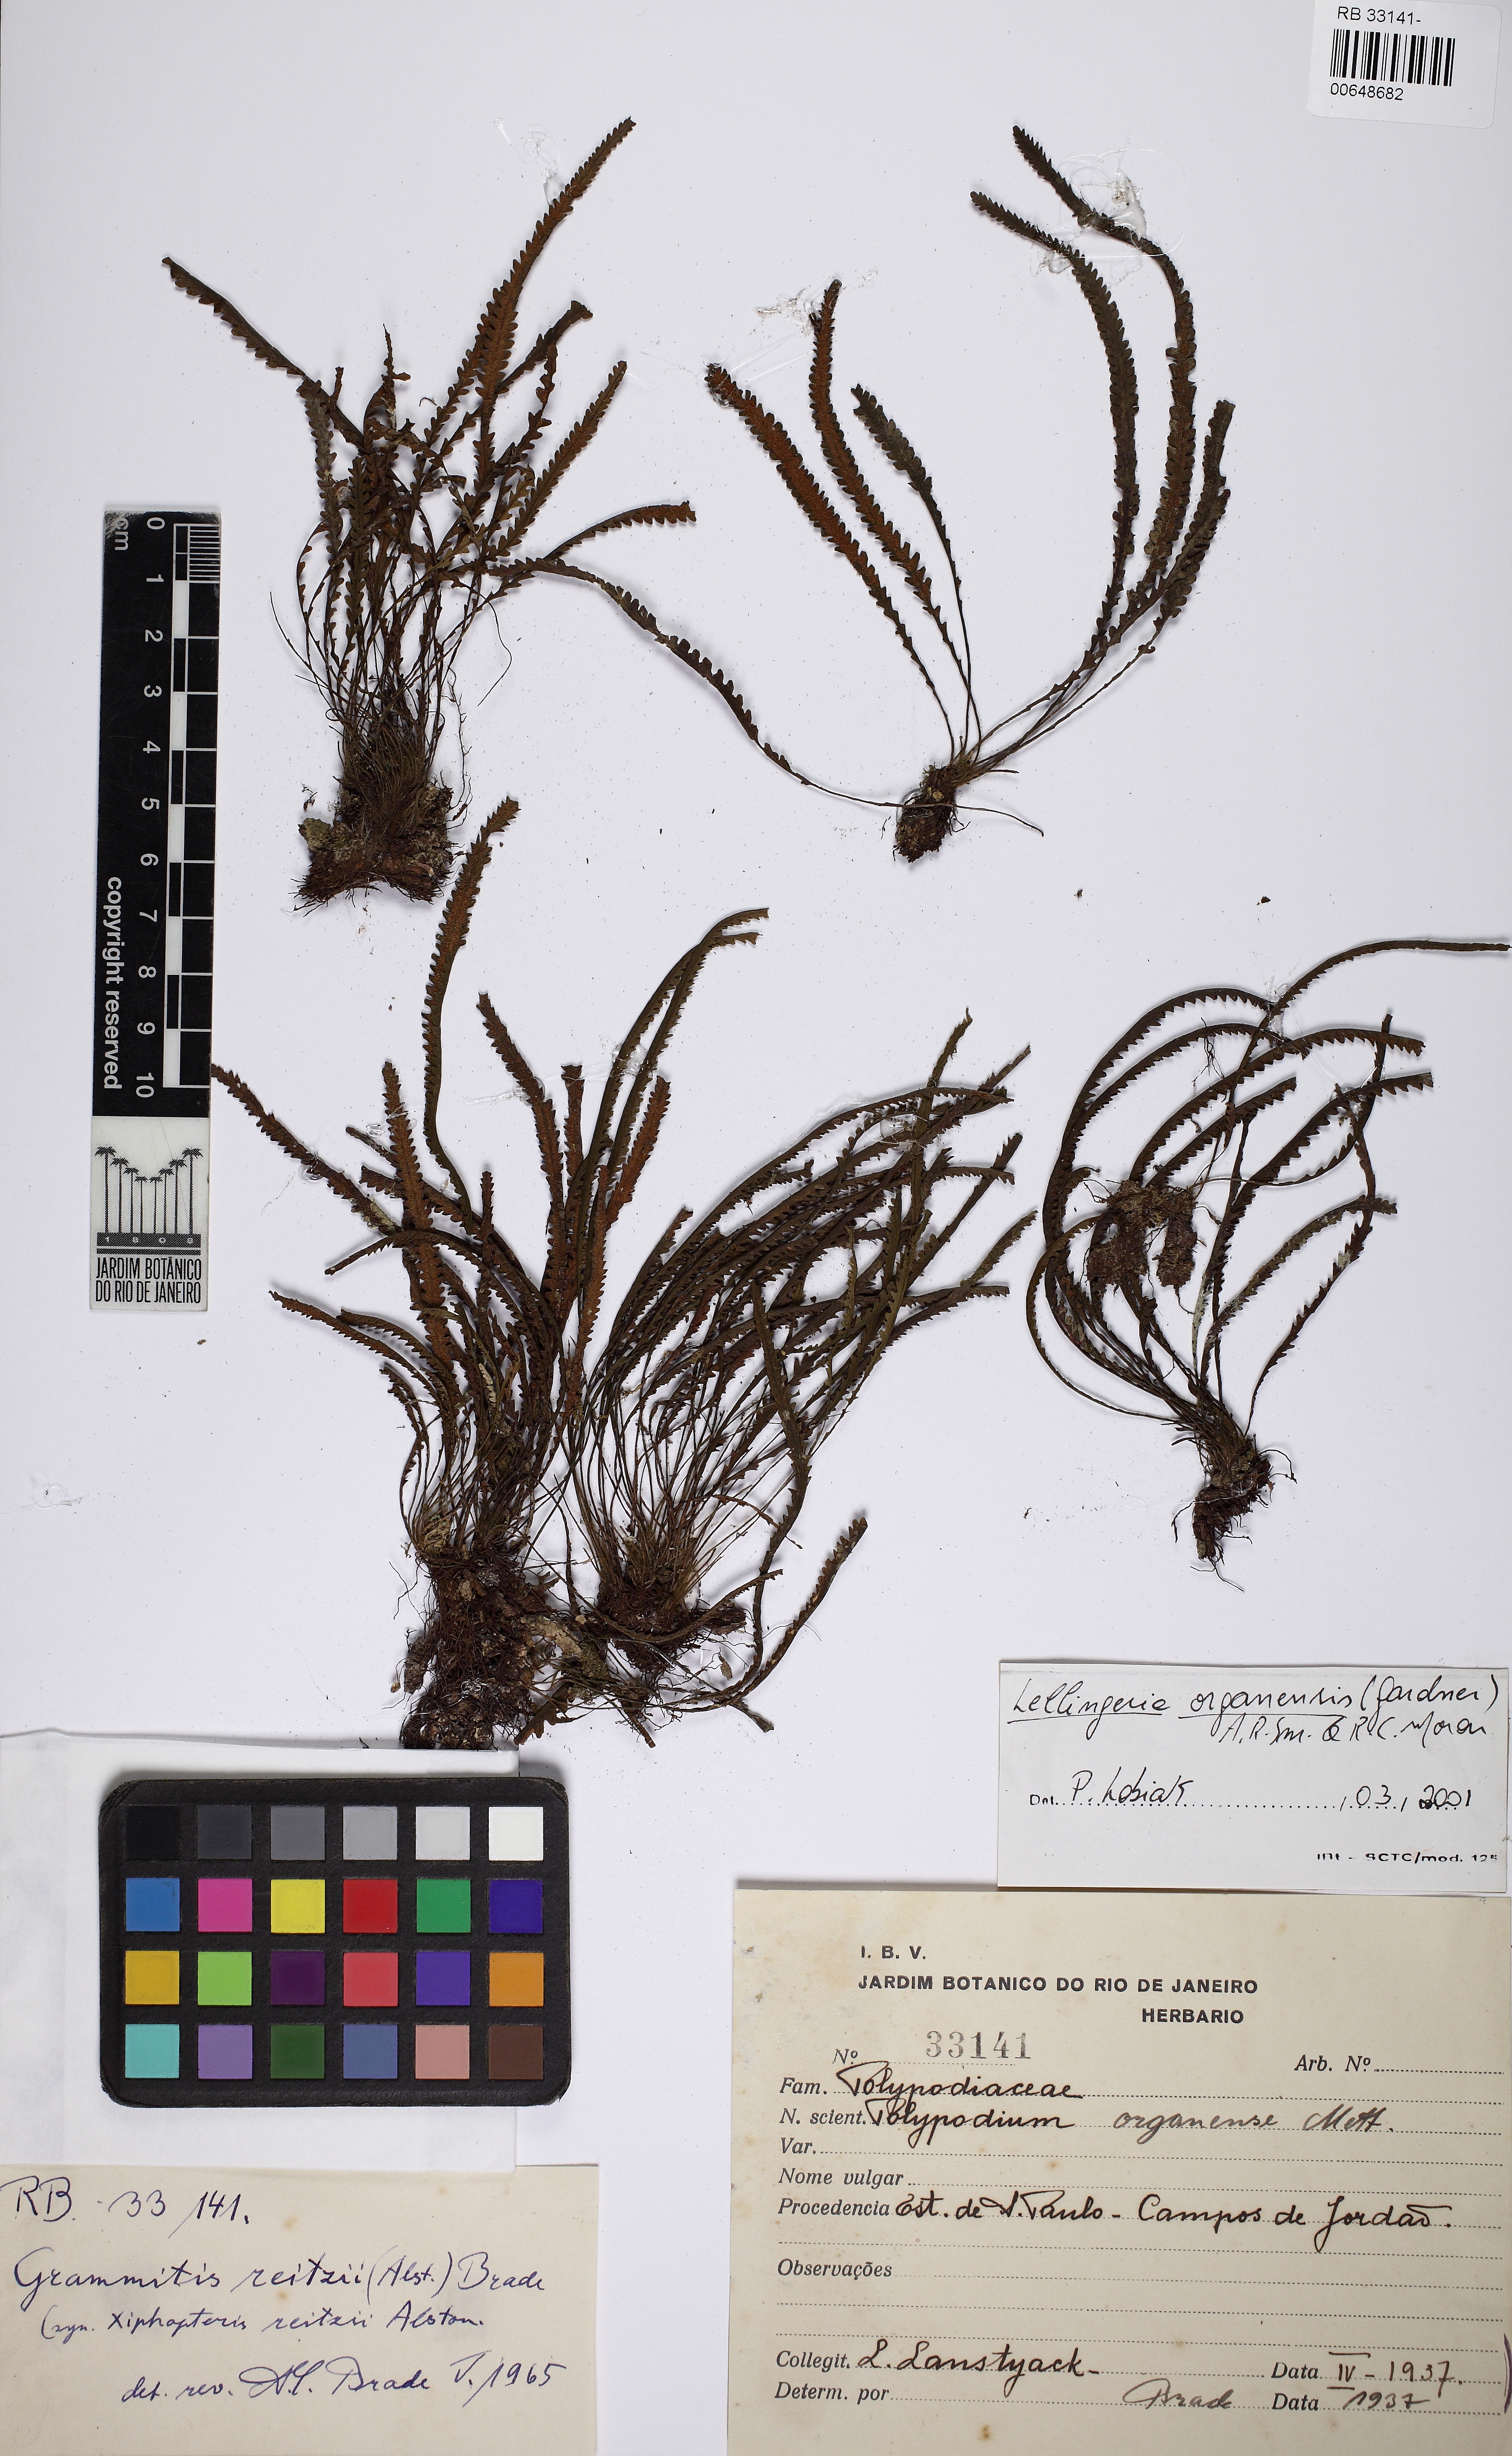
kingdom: Plantae
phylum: Tracheophyta
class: Polypodiopsida
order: Polypodiales
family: Polypodiaceae
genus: Leucotrichum
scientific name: Leucotrichum organense
